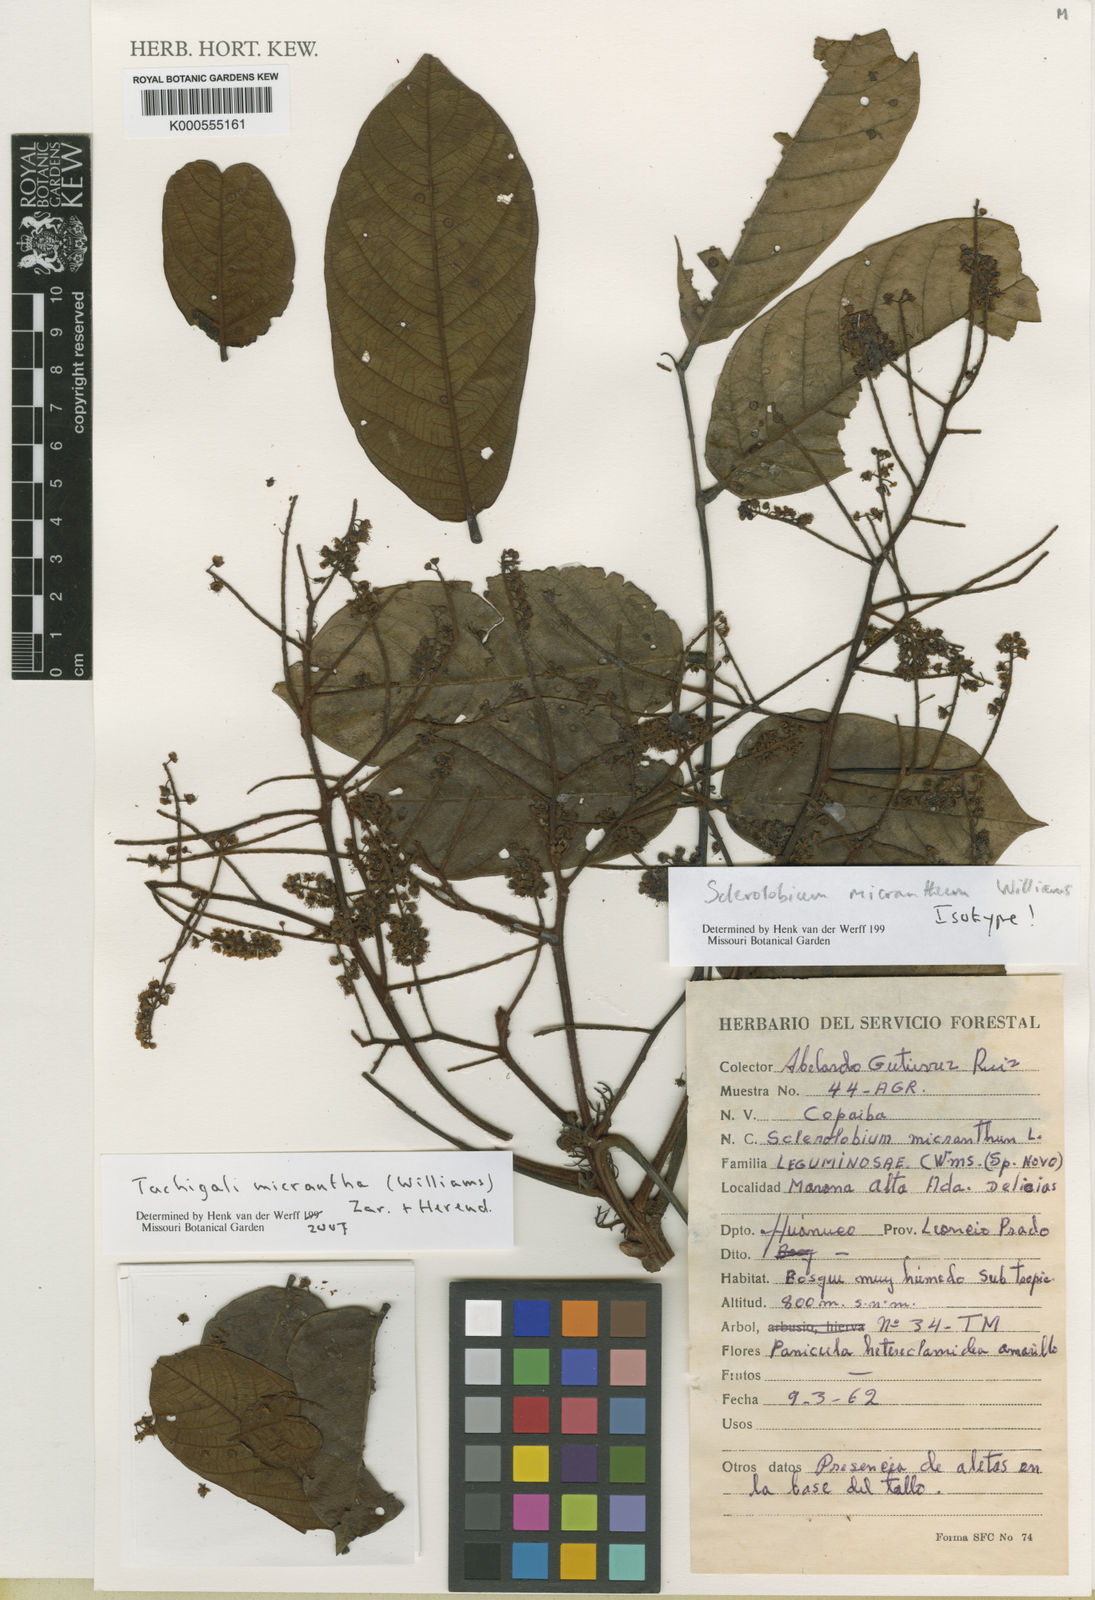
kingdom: Plantae
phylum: Tracheophyta
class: Magnoliopsida
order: Fabales
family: Fabaceae
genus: Tachigali
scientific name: Tachigali micrantha
